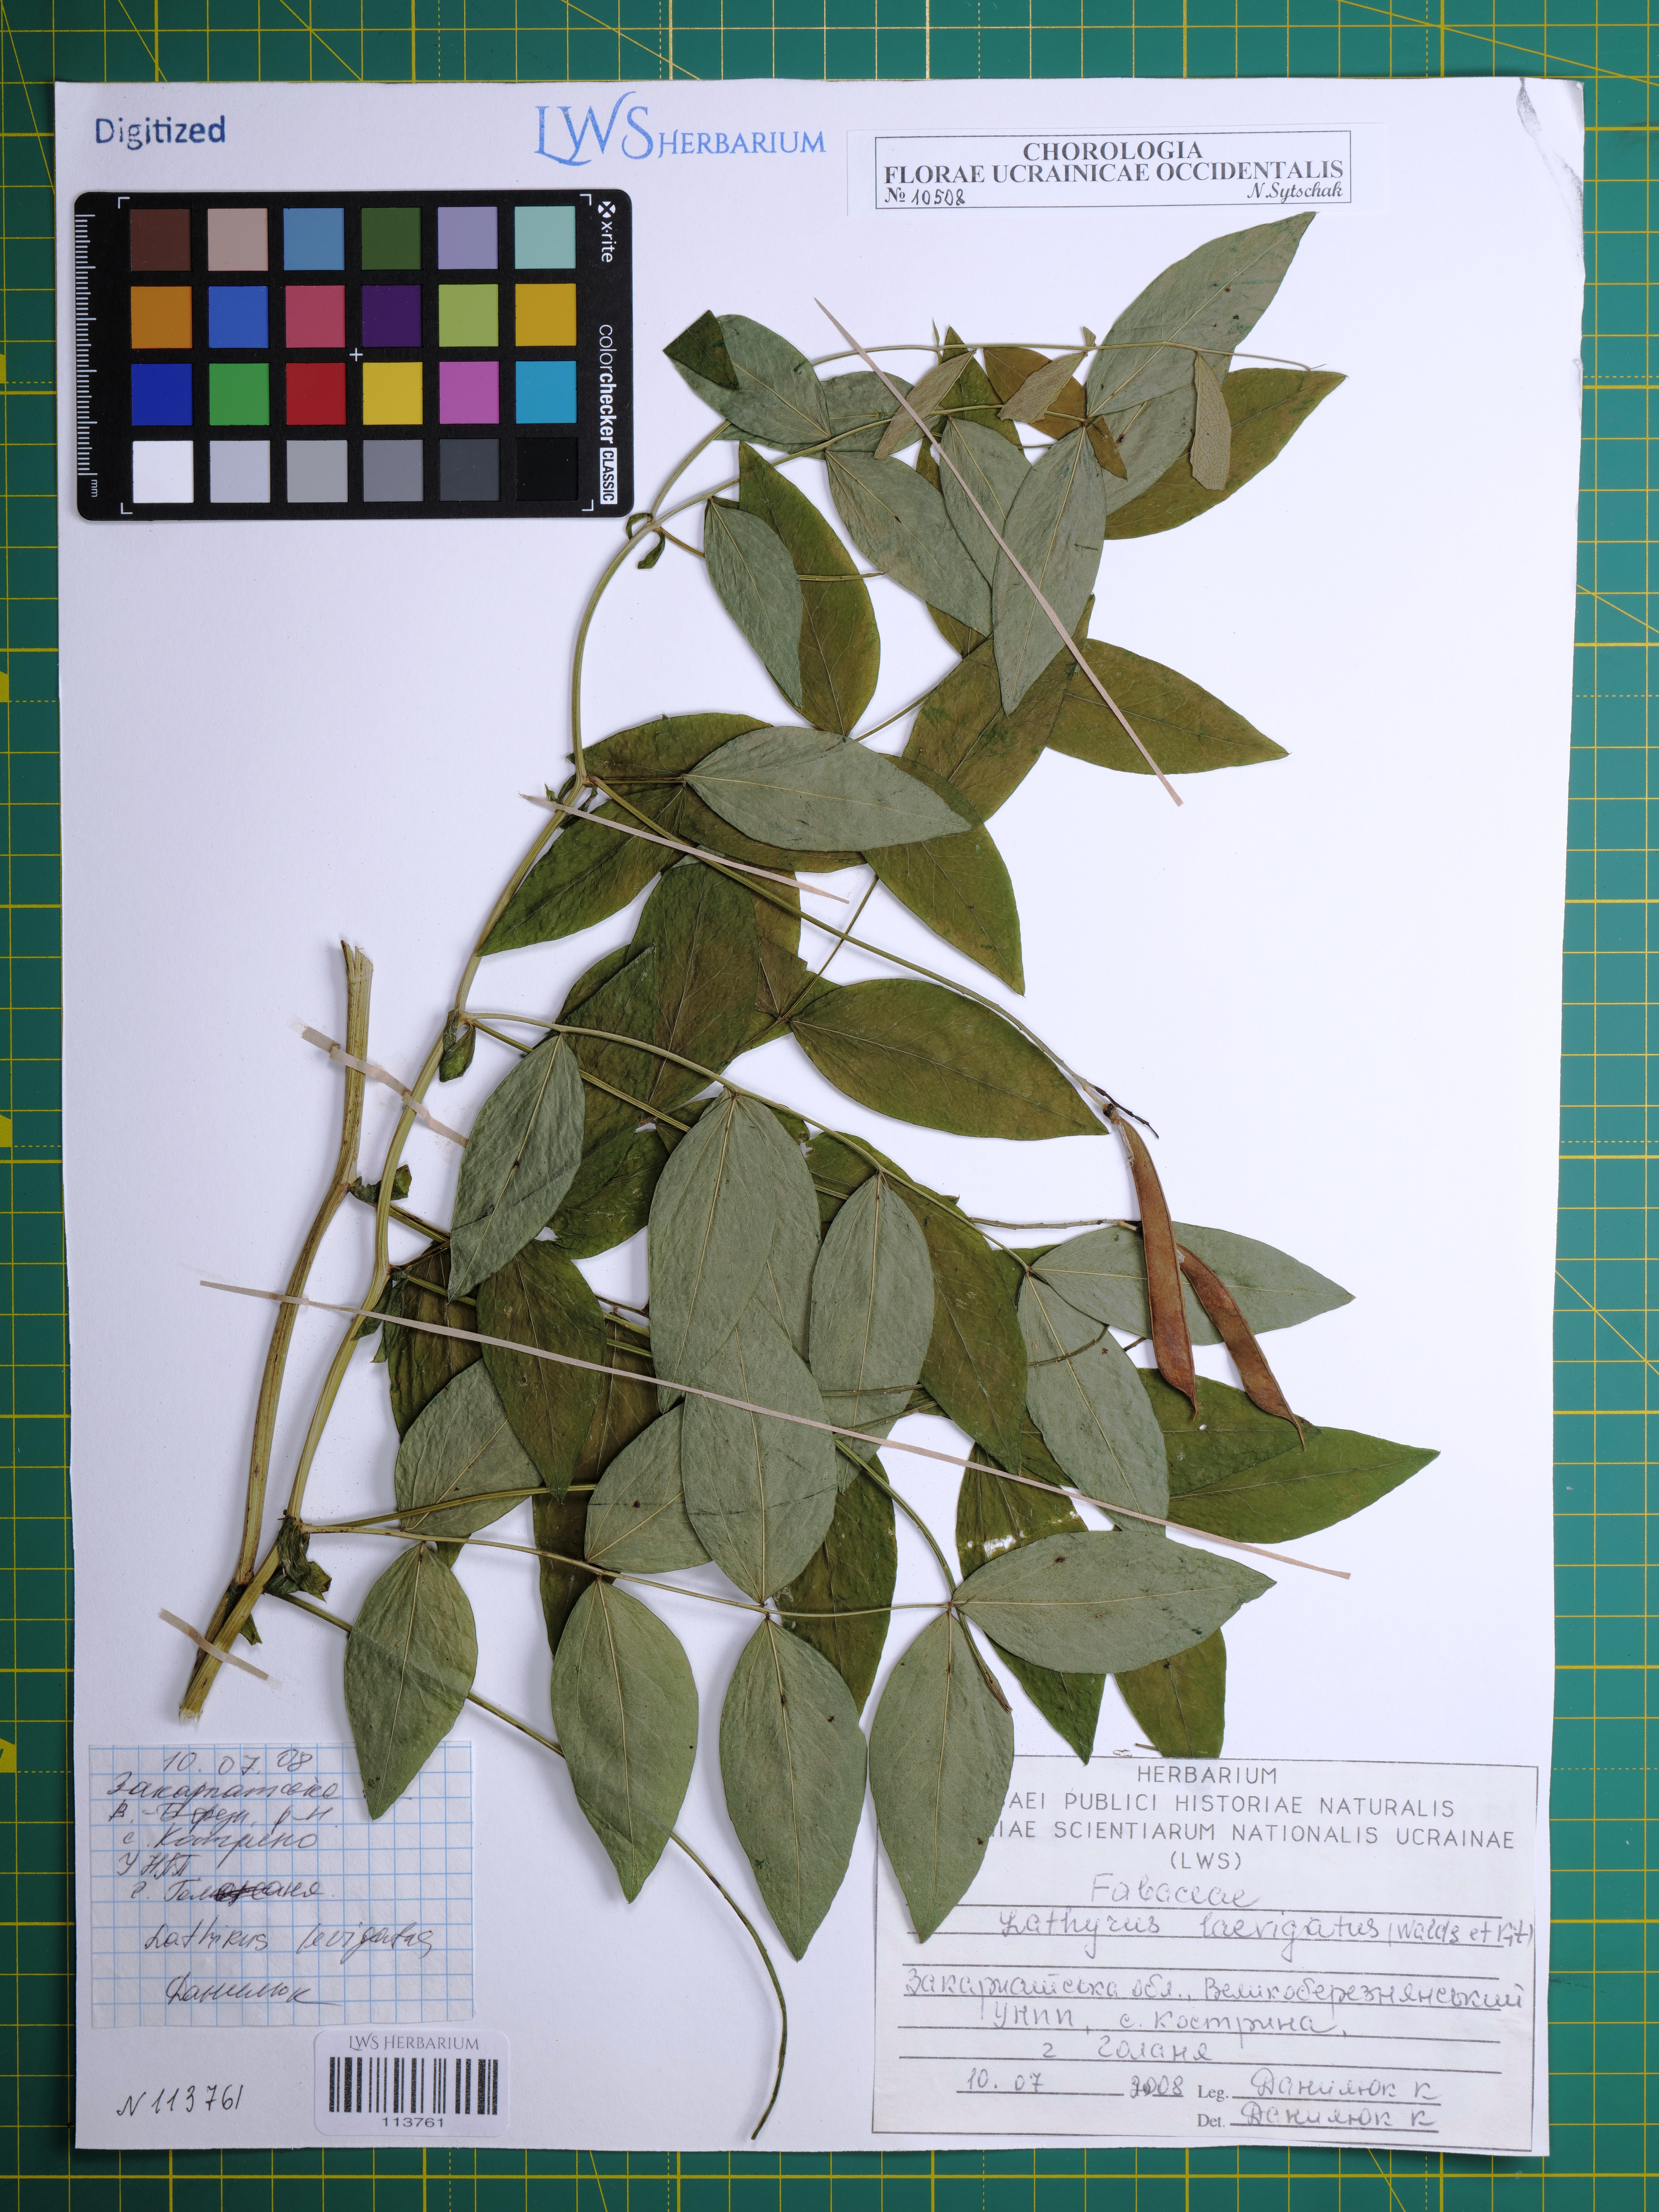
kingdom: Plantae
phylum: Tracheophyta
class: Magnoliopsida
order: Fabales
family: Fabaceae
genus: Lathyrus
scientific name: Lathyrus laevigatus
